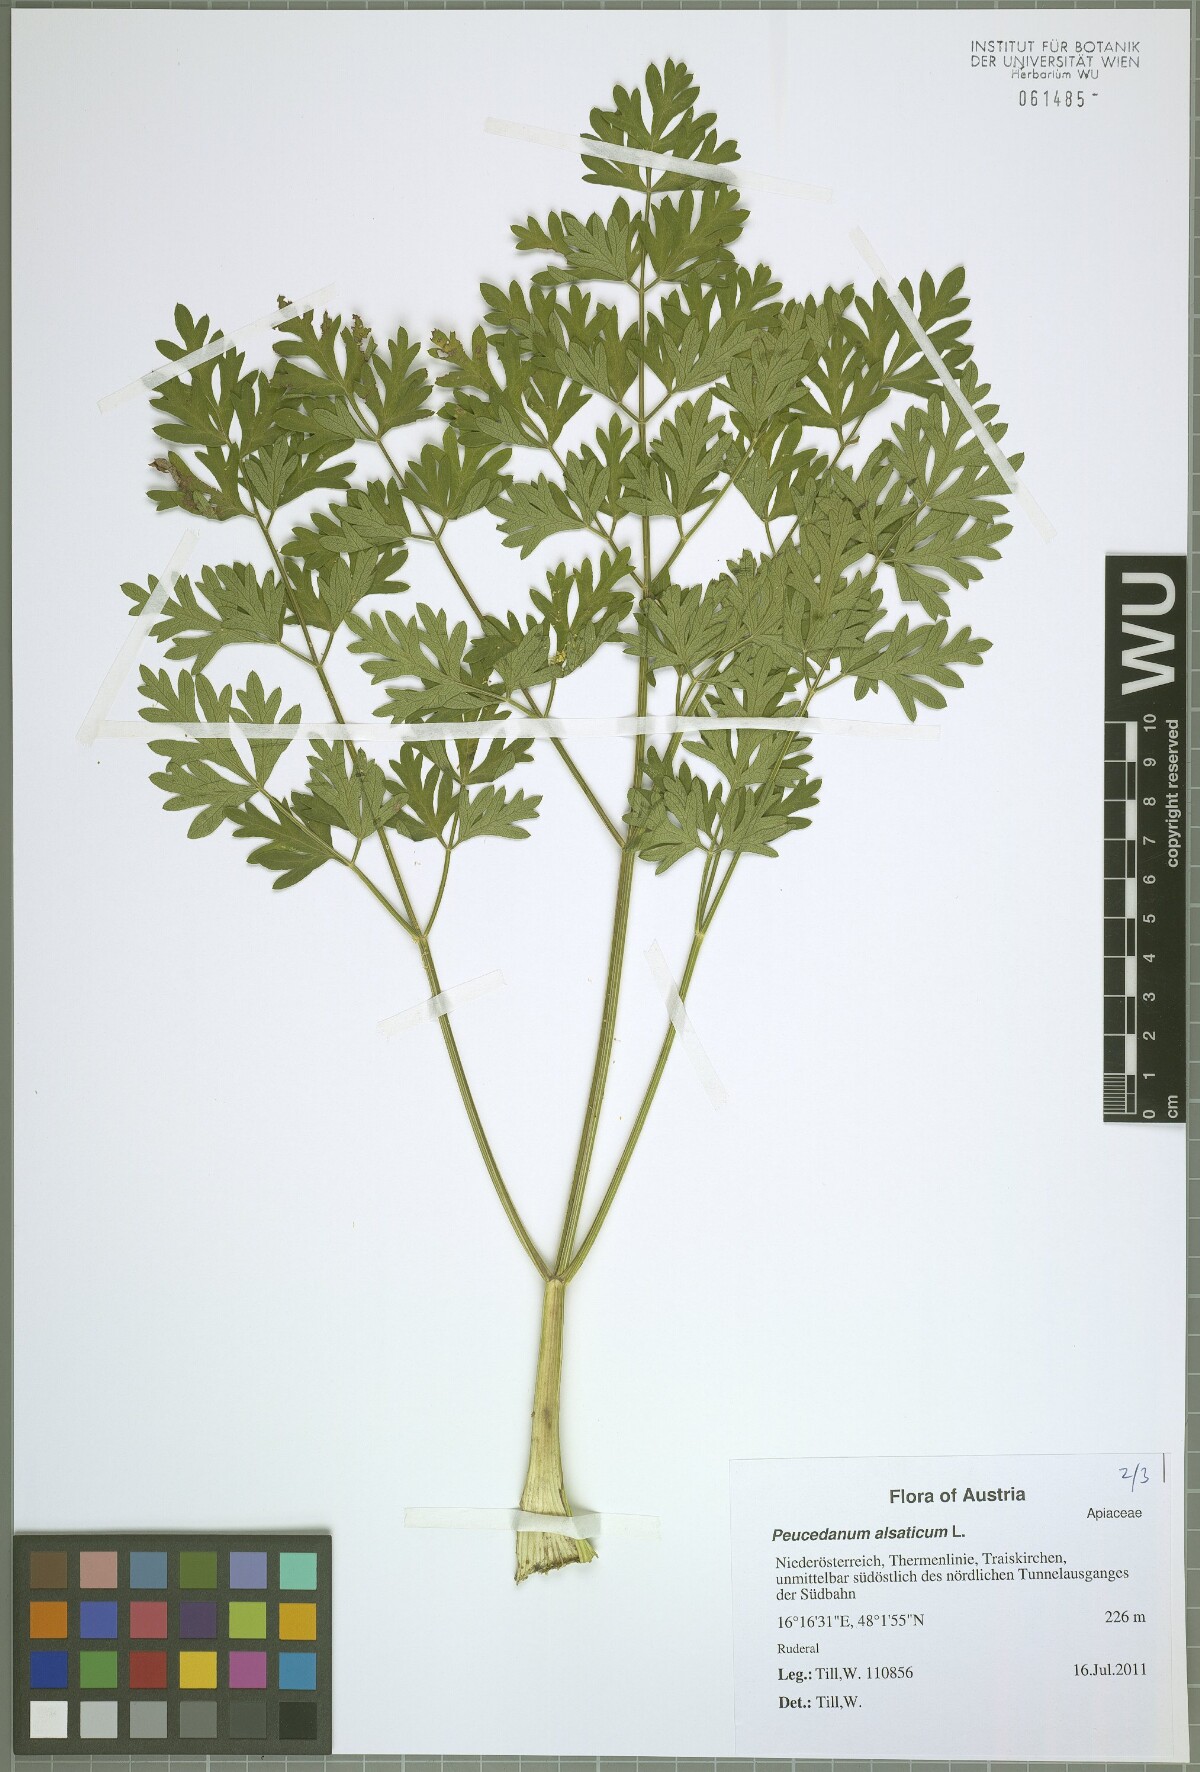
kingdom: Plantae
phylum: Tracheophyta
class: Magnoliopsida
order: Apiales
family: Apiaceae
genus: Xanthoselinum
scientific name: Xanthoselinum alsaticum
